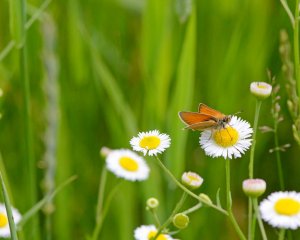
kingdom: Animalia
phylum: Arthropoda
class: Insecta
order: Lepidoptera
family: Hesperiidae
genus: Thymelicus
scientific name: Thymelicus lineola
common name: European Skipper
